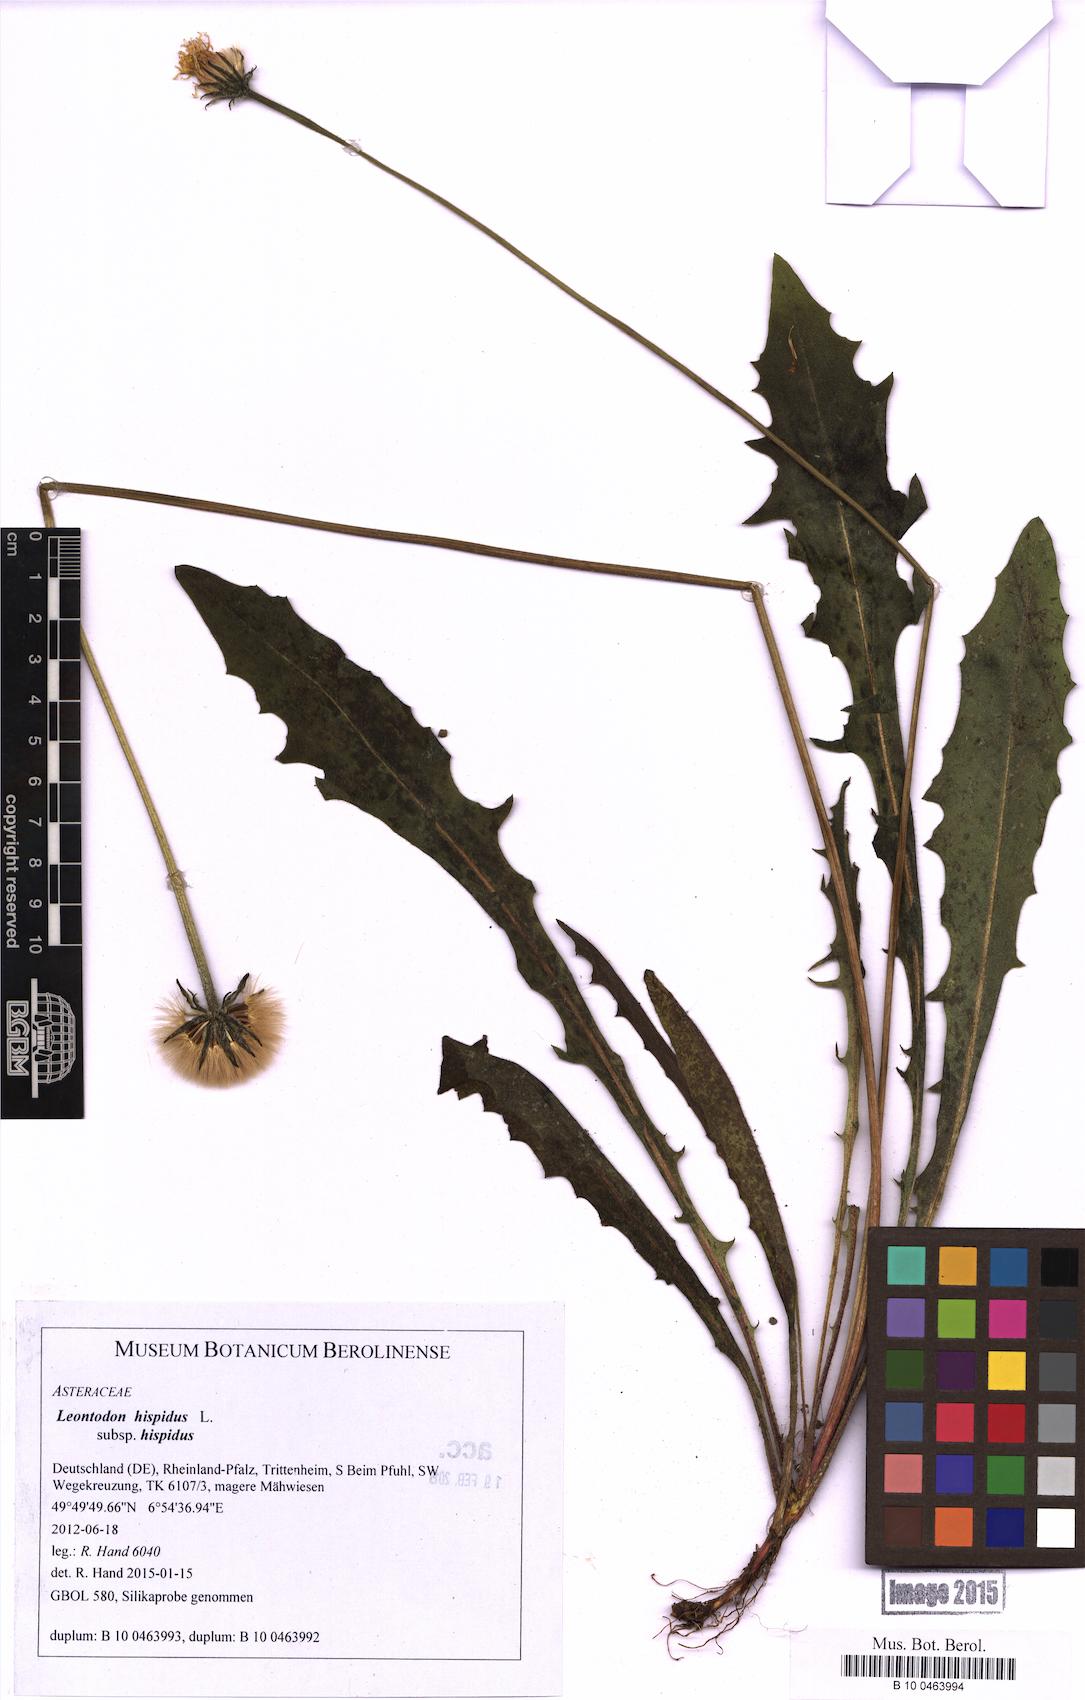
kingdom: Plantae
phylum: Tracheophyta
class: Magnoliopsida
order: Asterales
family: Asteraceae
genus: Leontodon
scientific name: Leontodon hispidus
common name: Rough hawkbit
